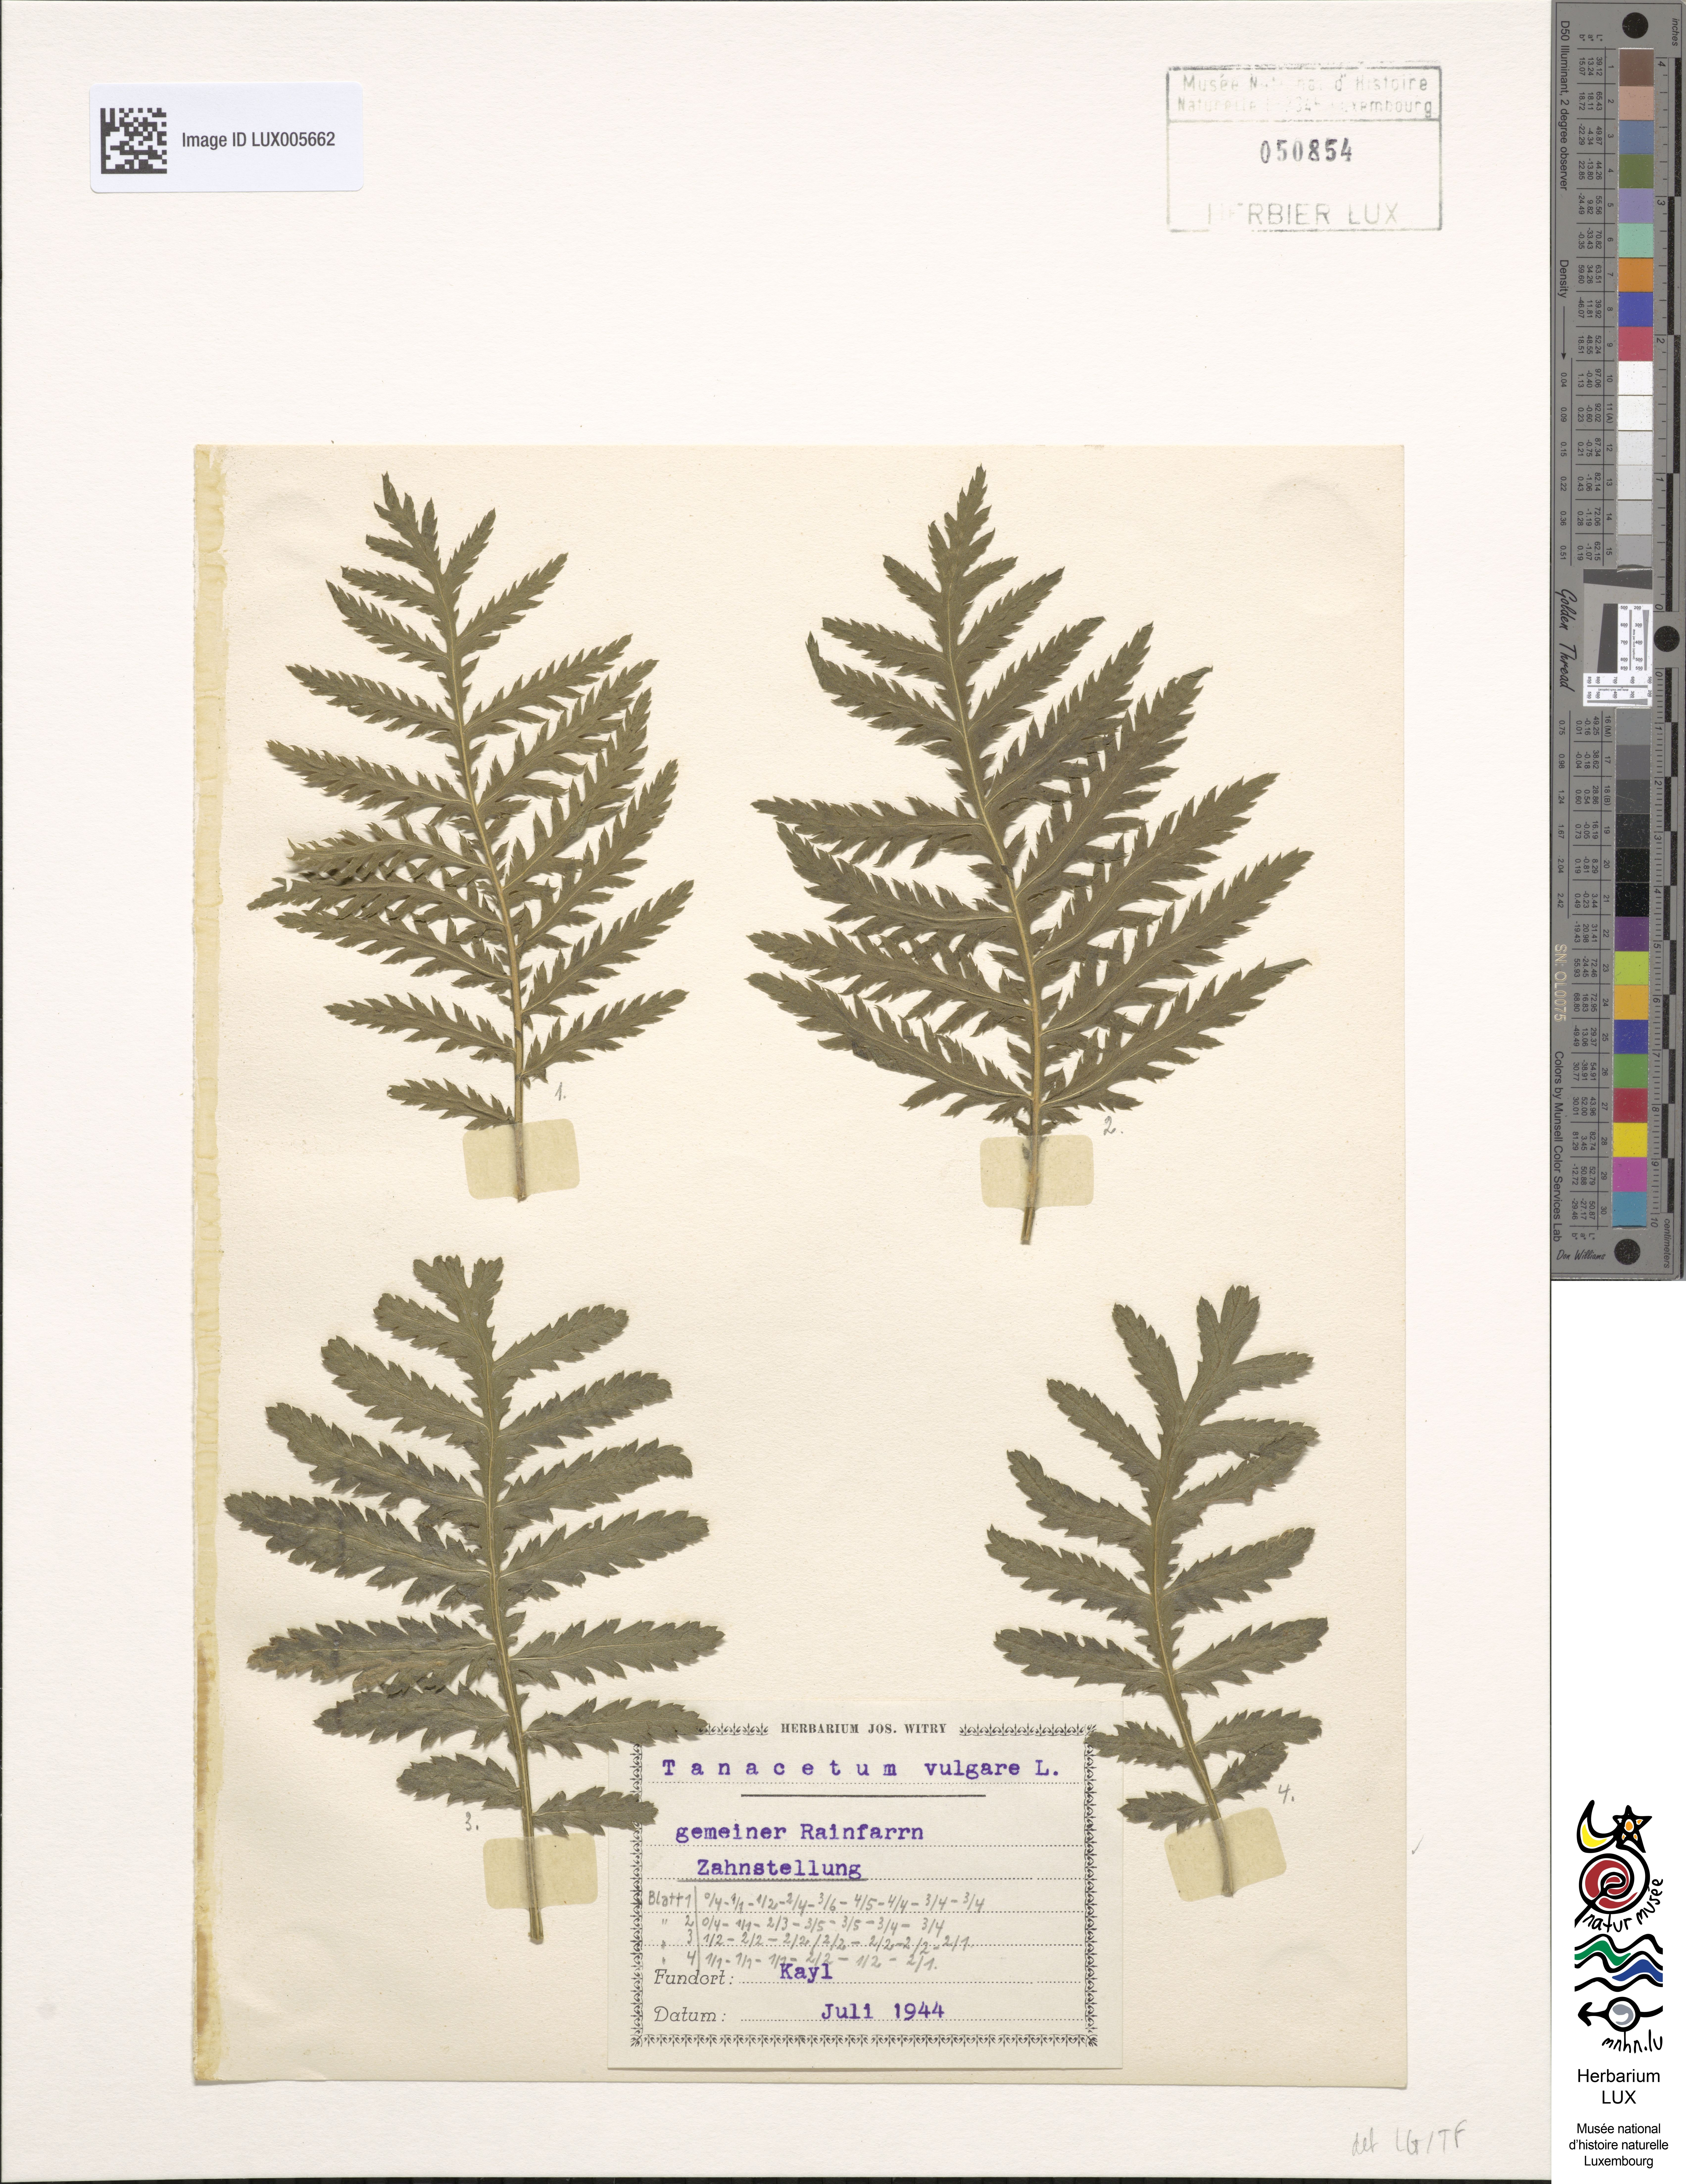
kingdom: Plantae
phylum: Tracheophyta
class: Magnoliopsida
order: Asterales
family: Asteraceae
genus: Tanacetum
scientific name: Tanacetum vulgare
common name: Common tansy
